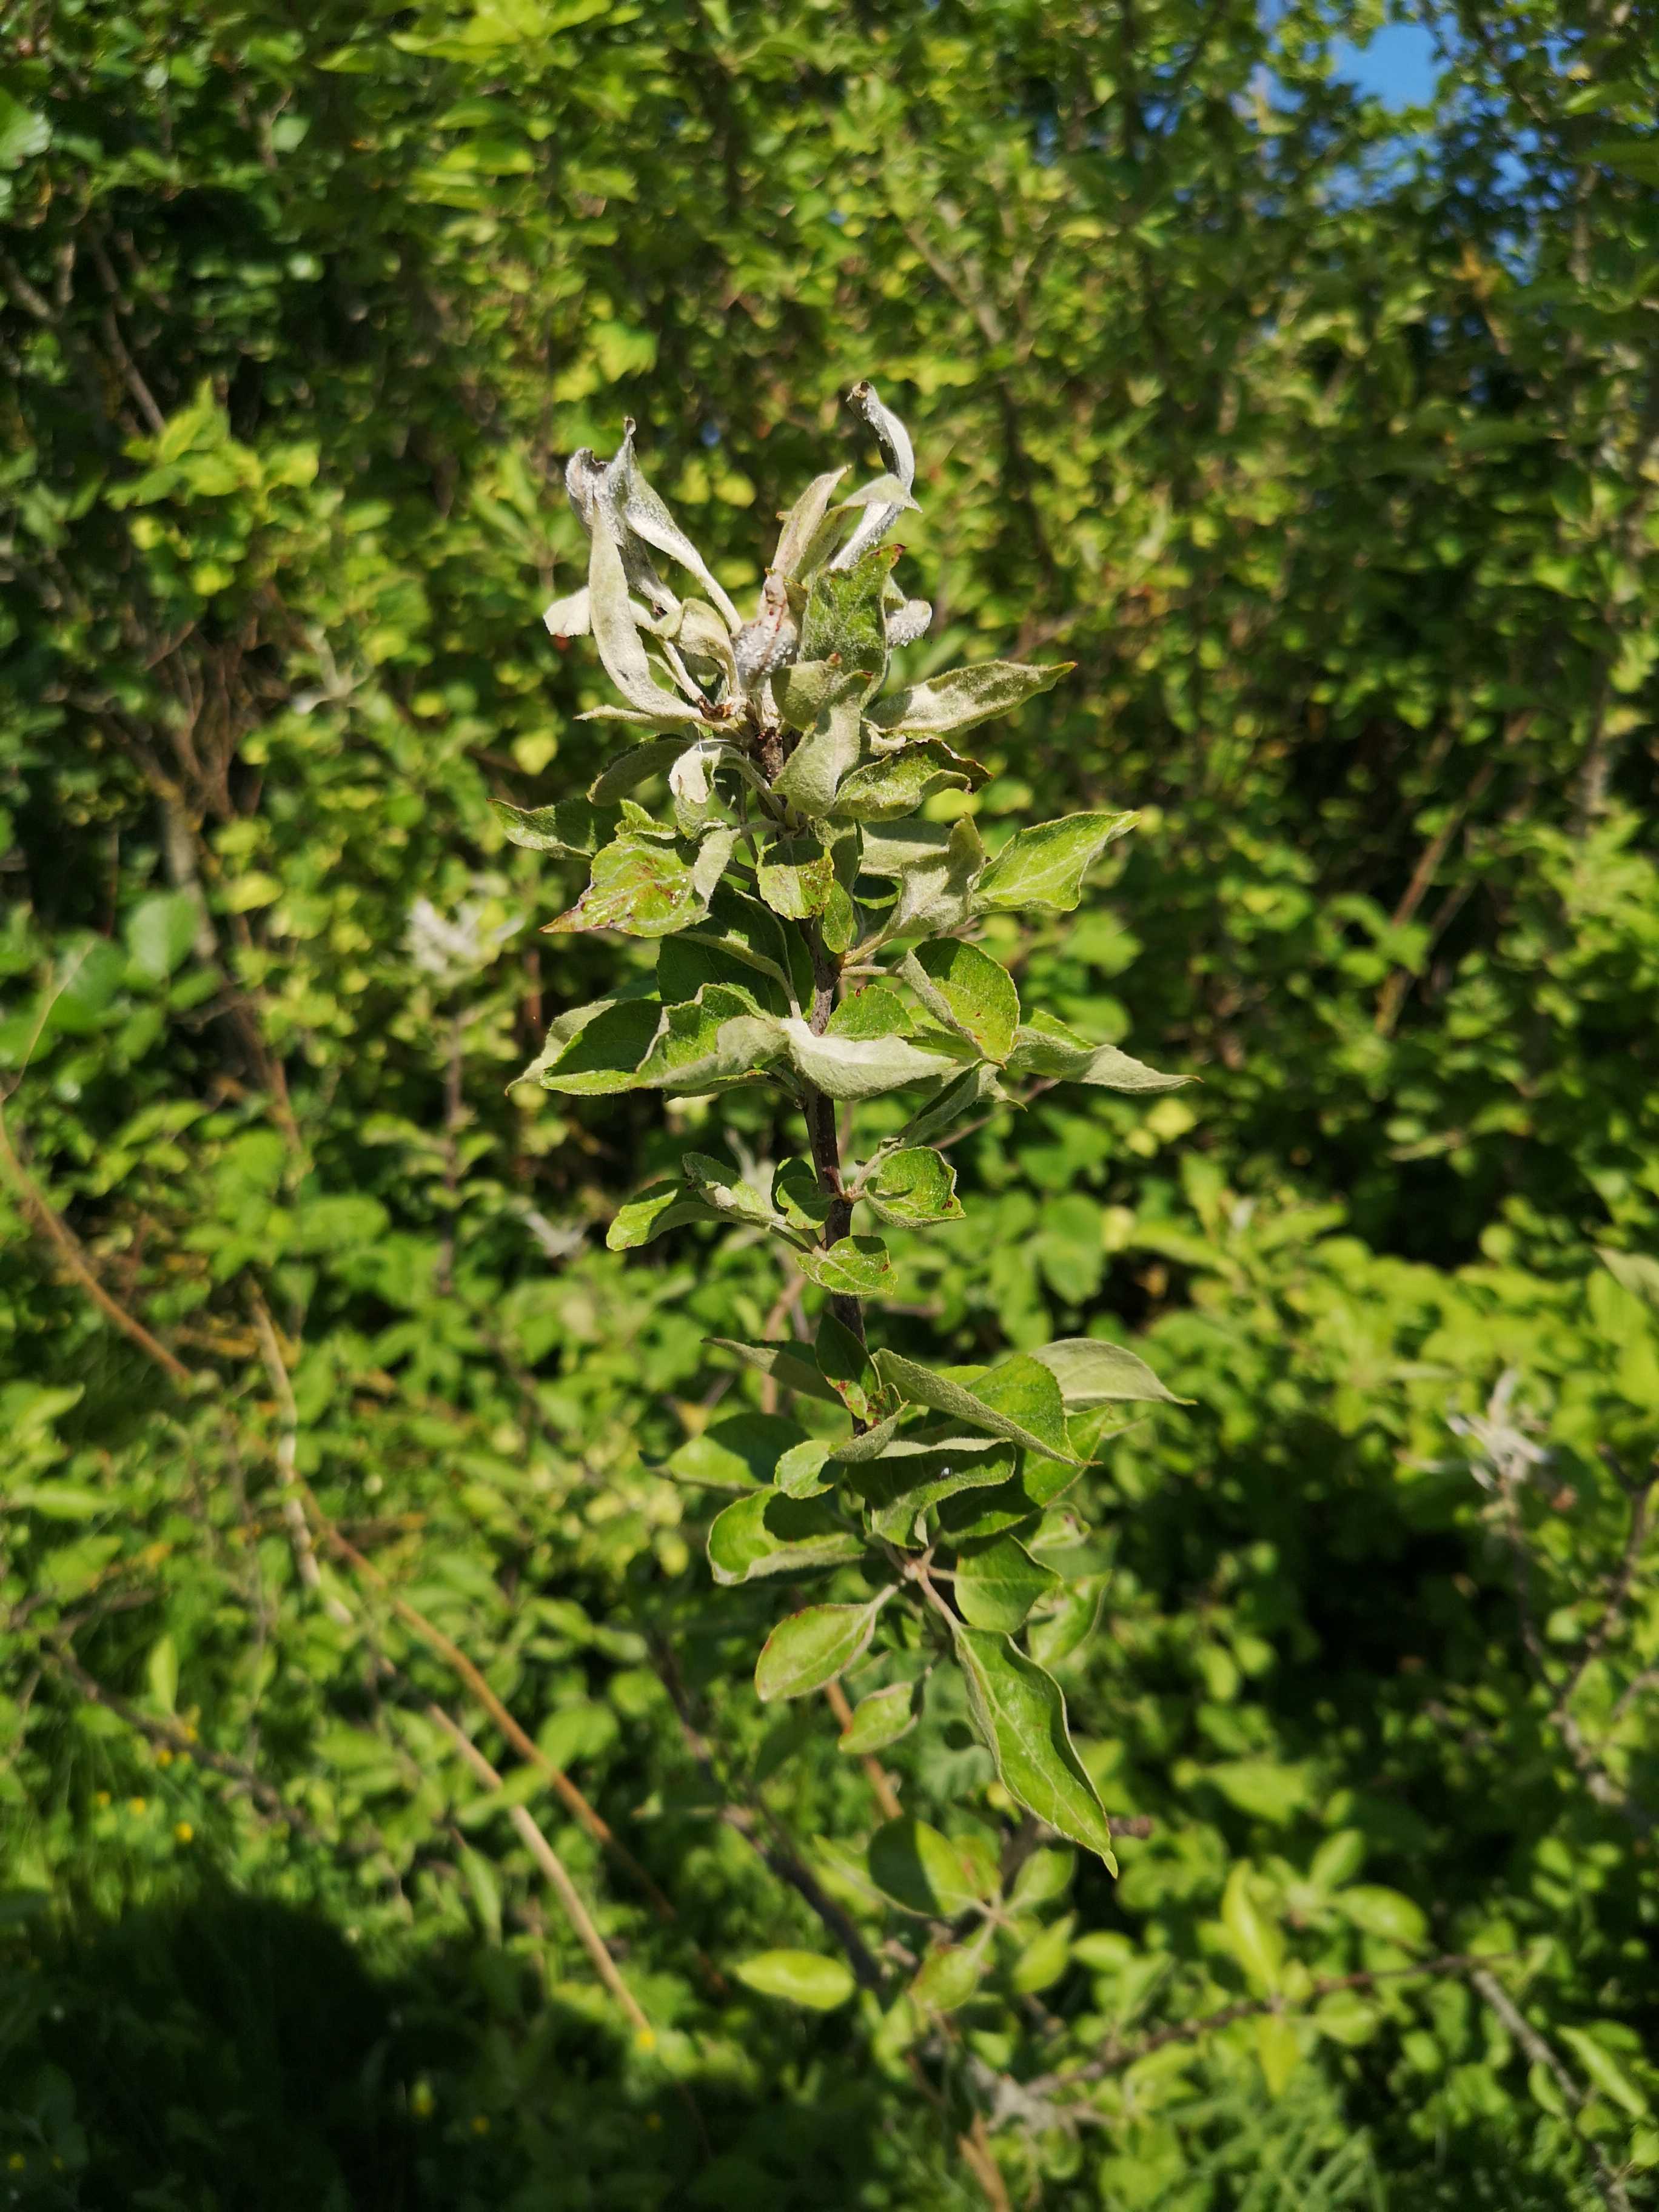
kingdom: Fungi
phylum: Ascomycota
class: Leotiomycetes
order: Helotiales
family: Erysiphaceae
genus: Podosphaera
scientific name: Podosphaera leucotricha
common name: æble-meldug
